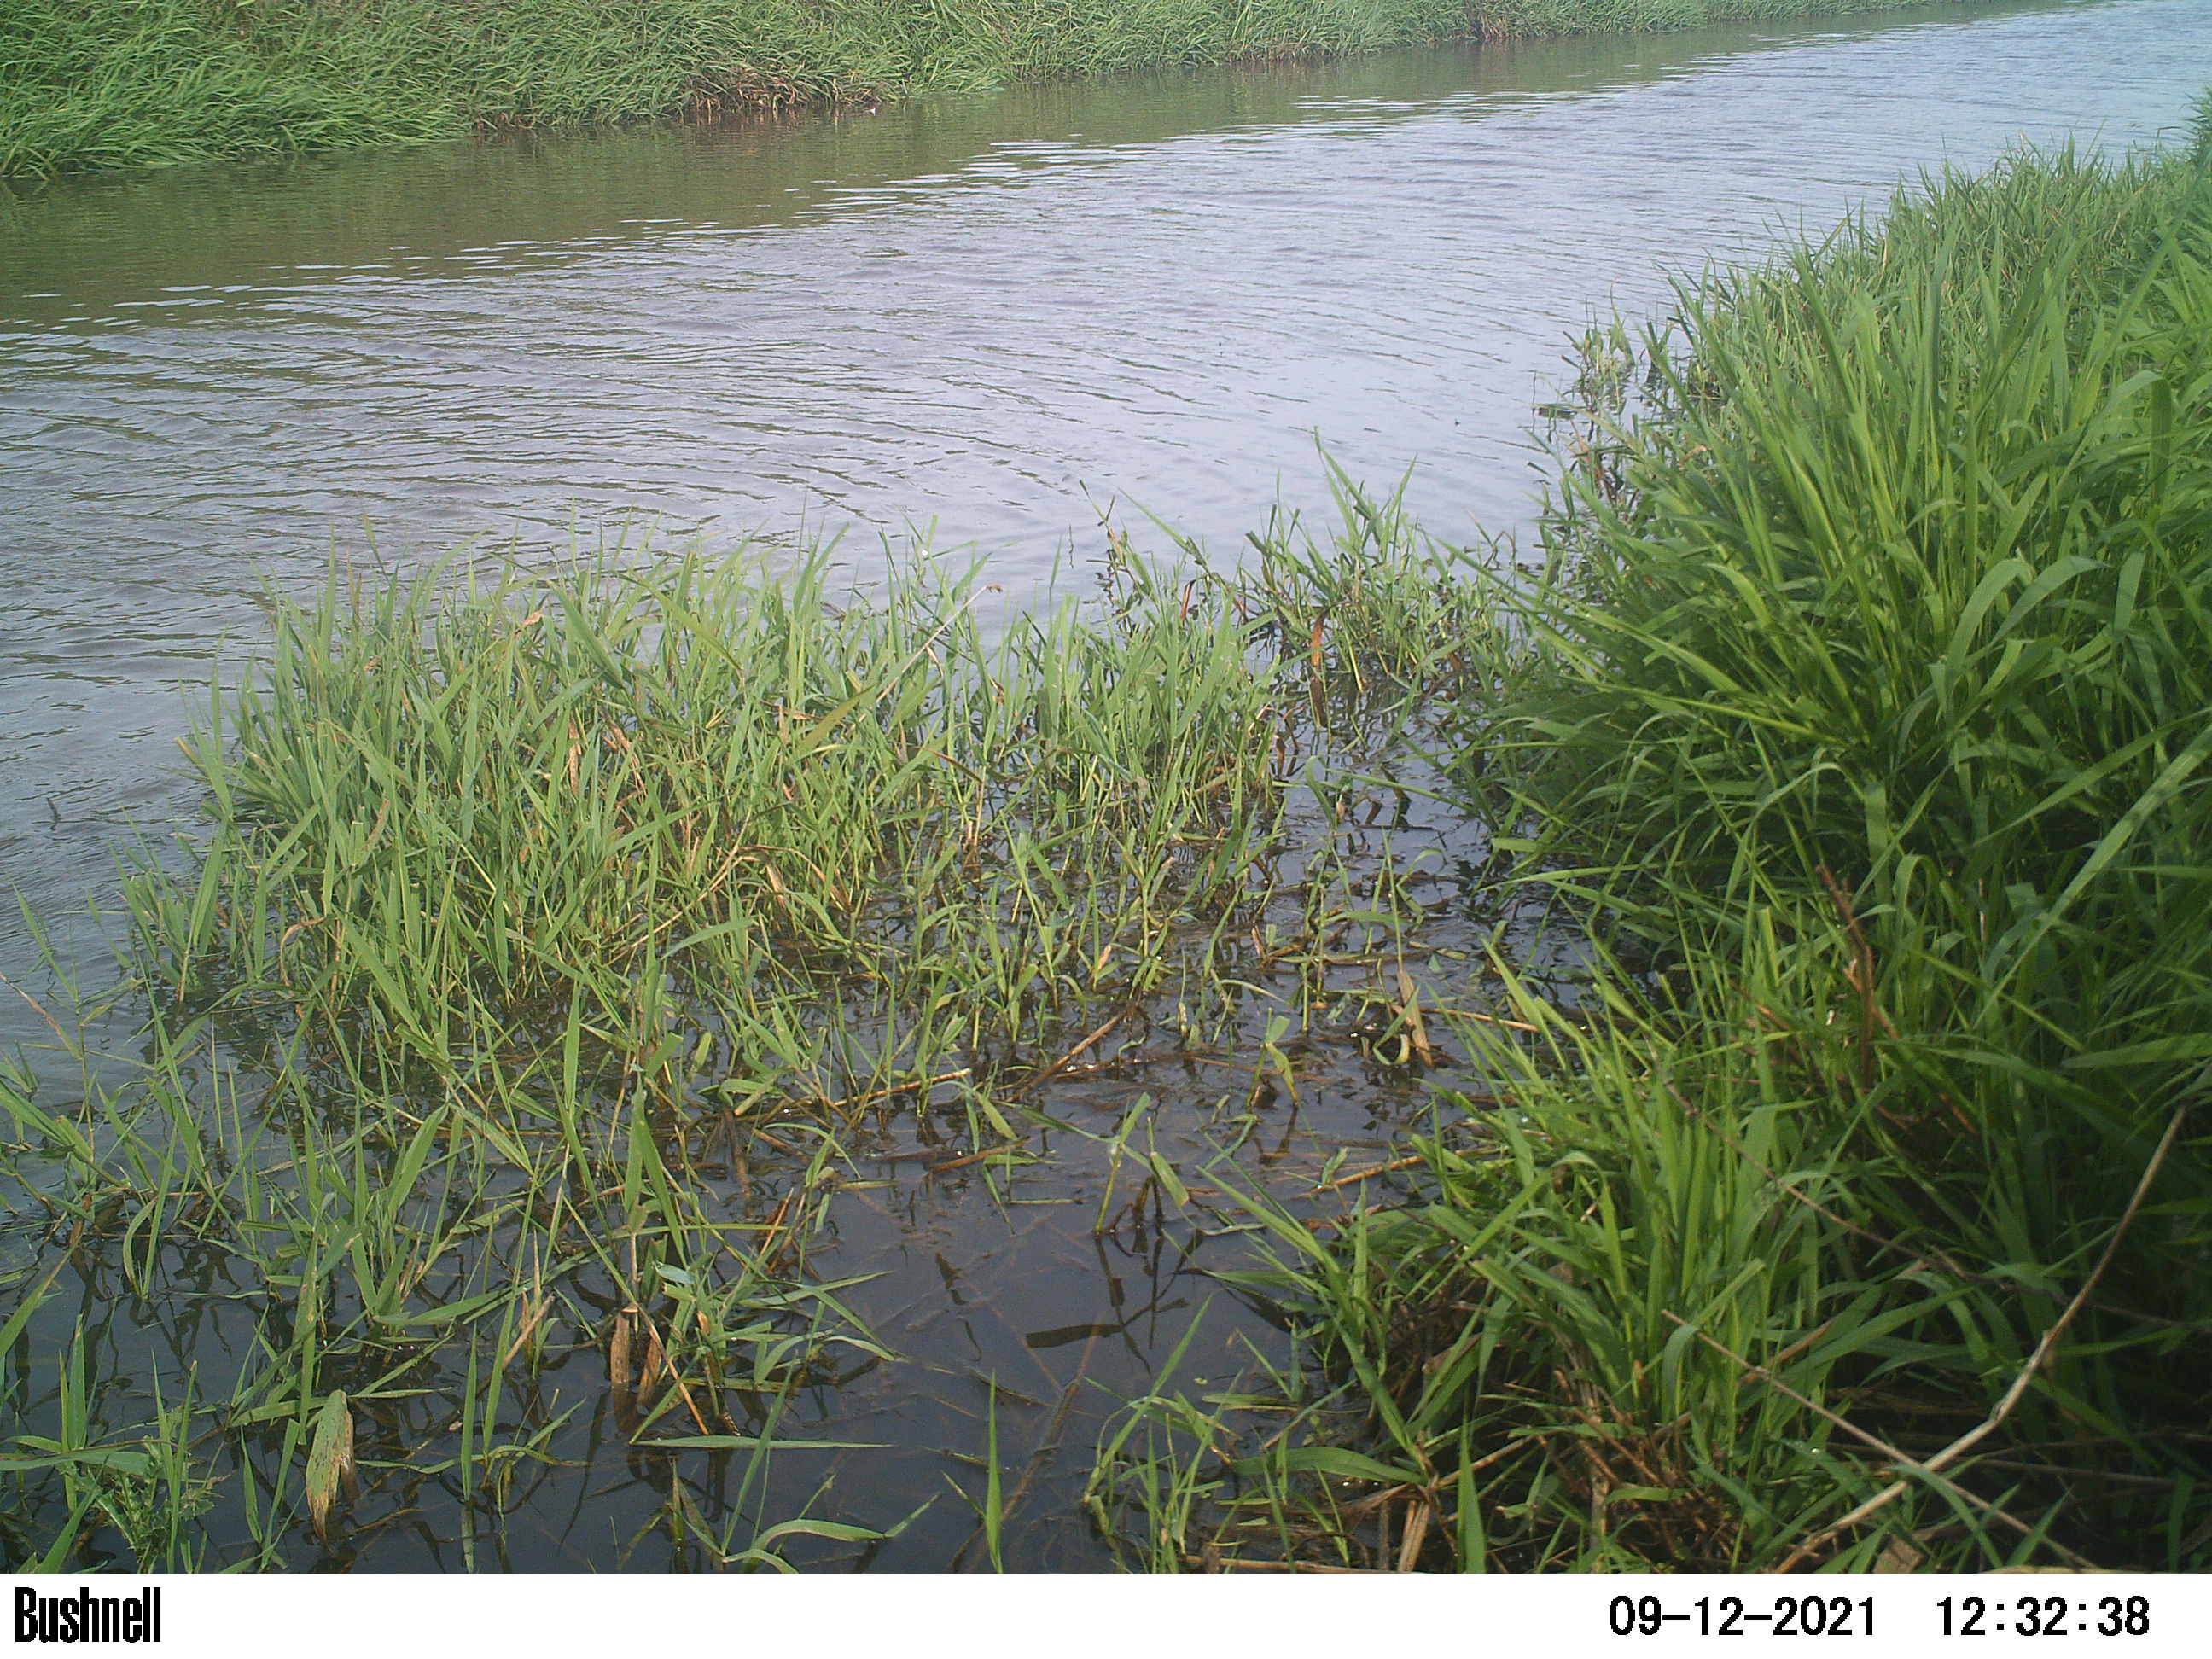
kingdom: Animalia
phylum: Chordata
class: Aves
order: Gruiformes
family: Rallidae
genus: Fulica
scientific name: Fulica atra
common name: Eurasian coot
